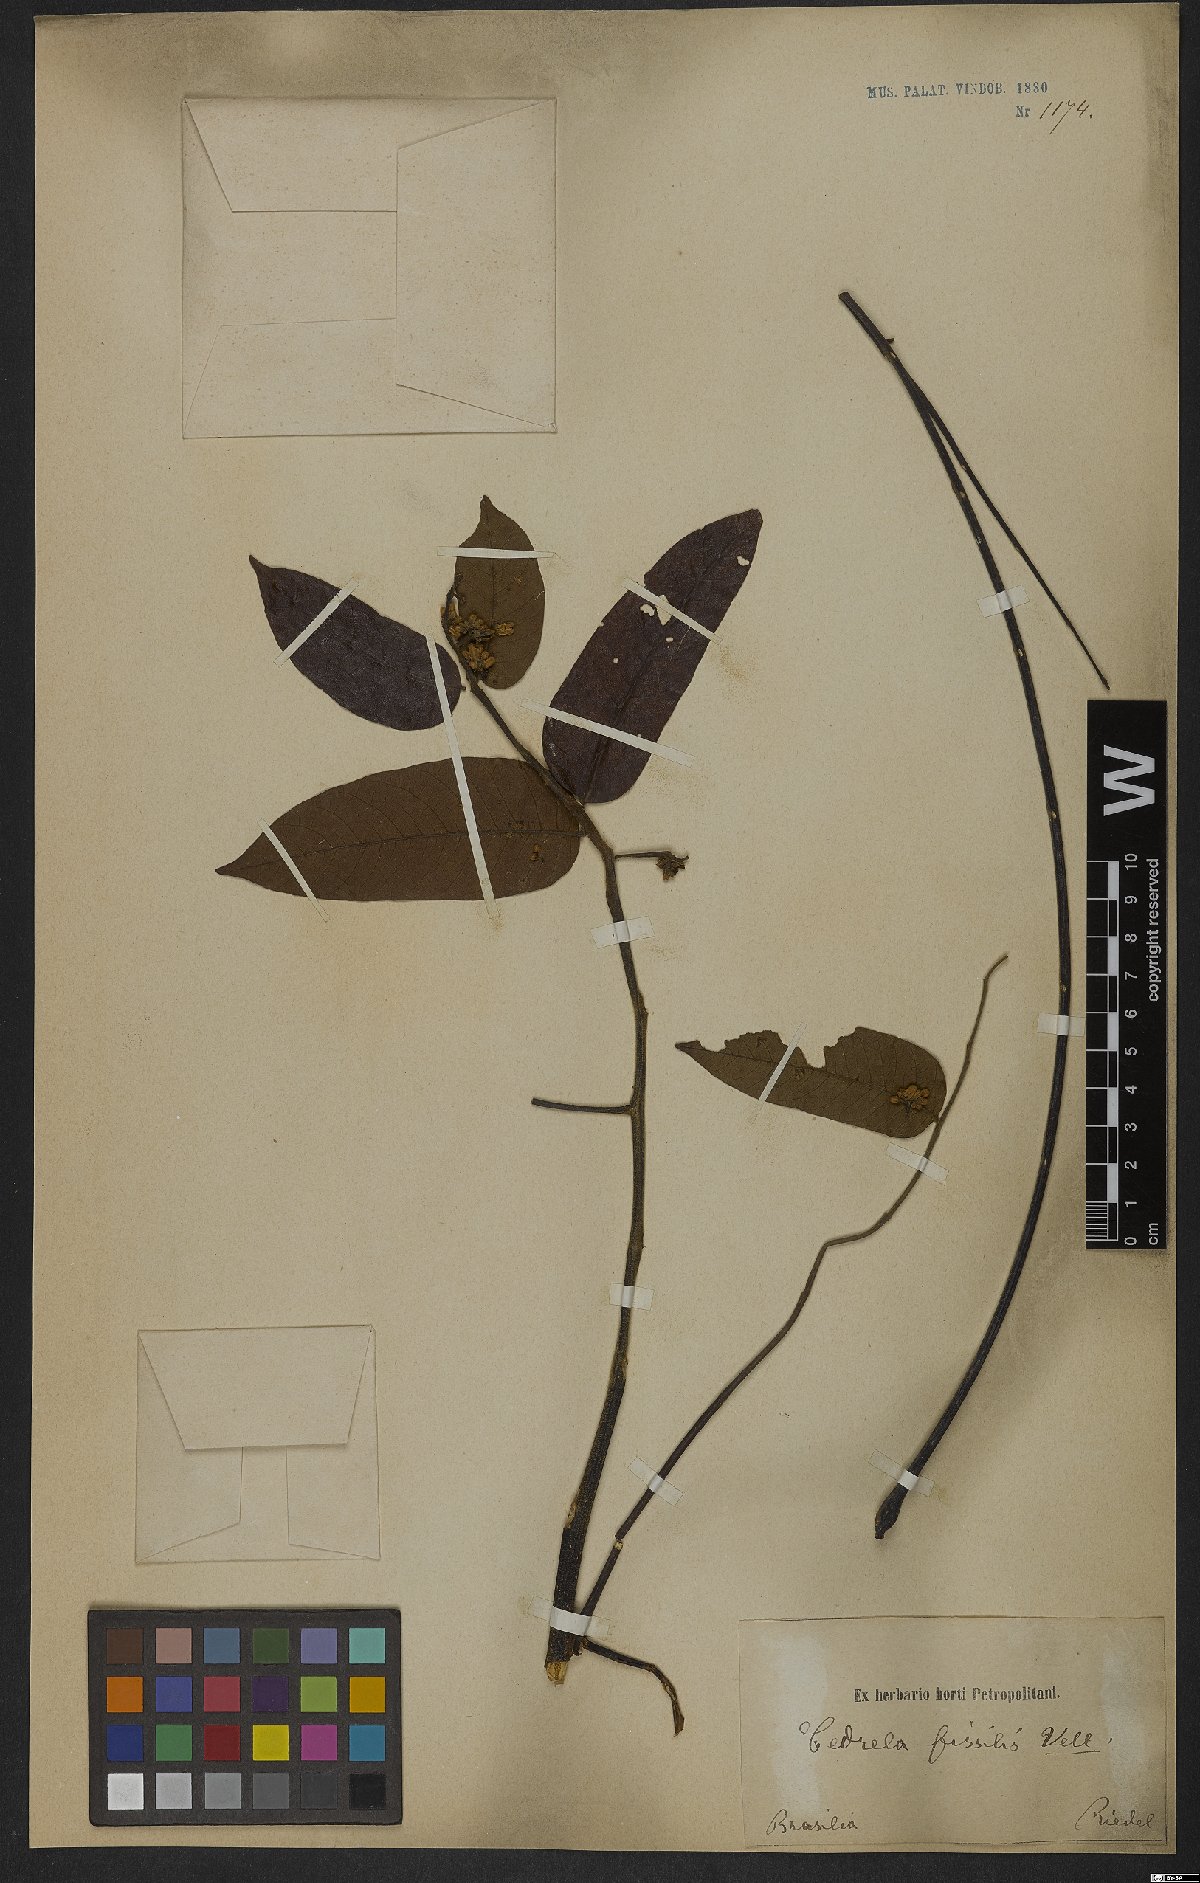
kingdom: Plantae
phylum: Tracheophyta
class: Magnoliopsida
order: Sapindales
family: Meliaceae
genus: Cedrela
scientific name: Cedrela fissilis
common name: Argentine cedar
